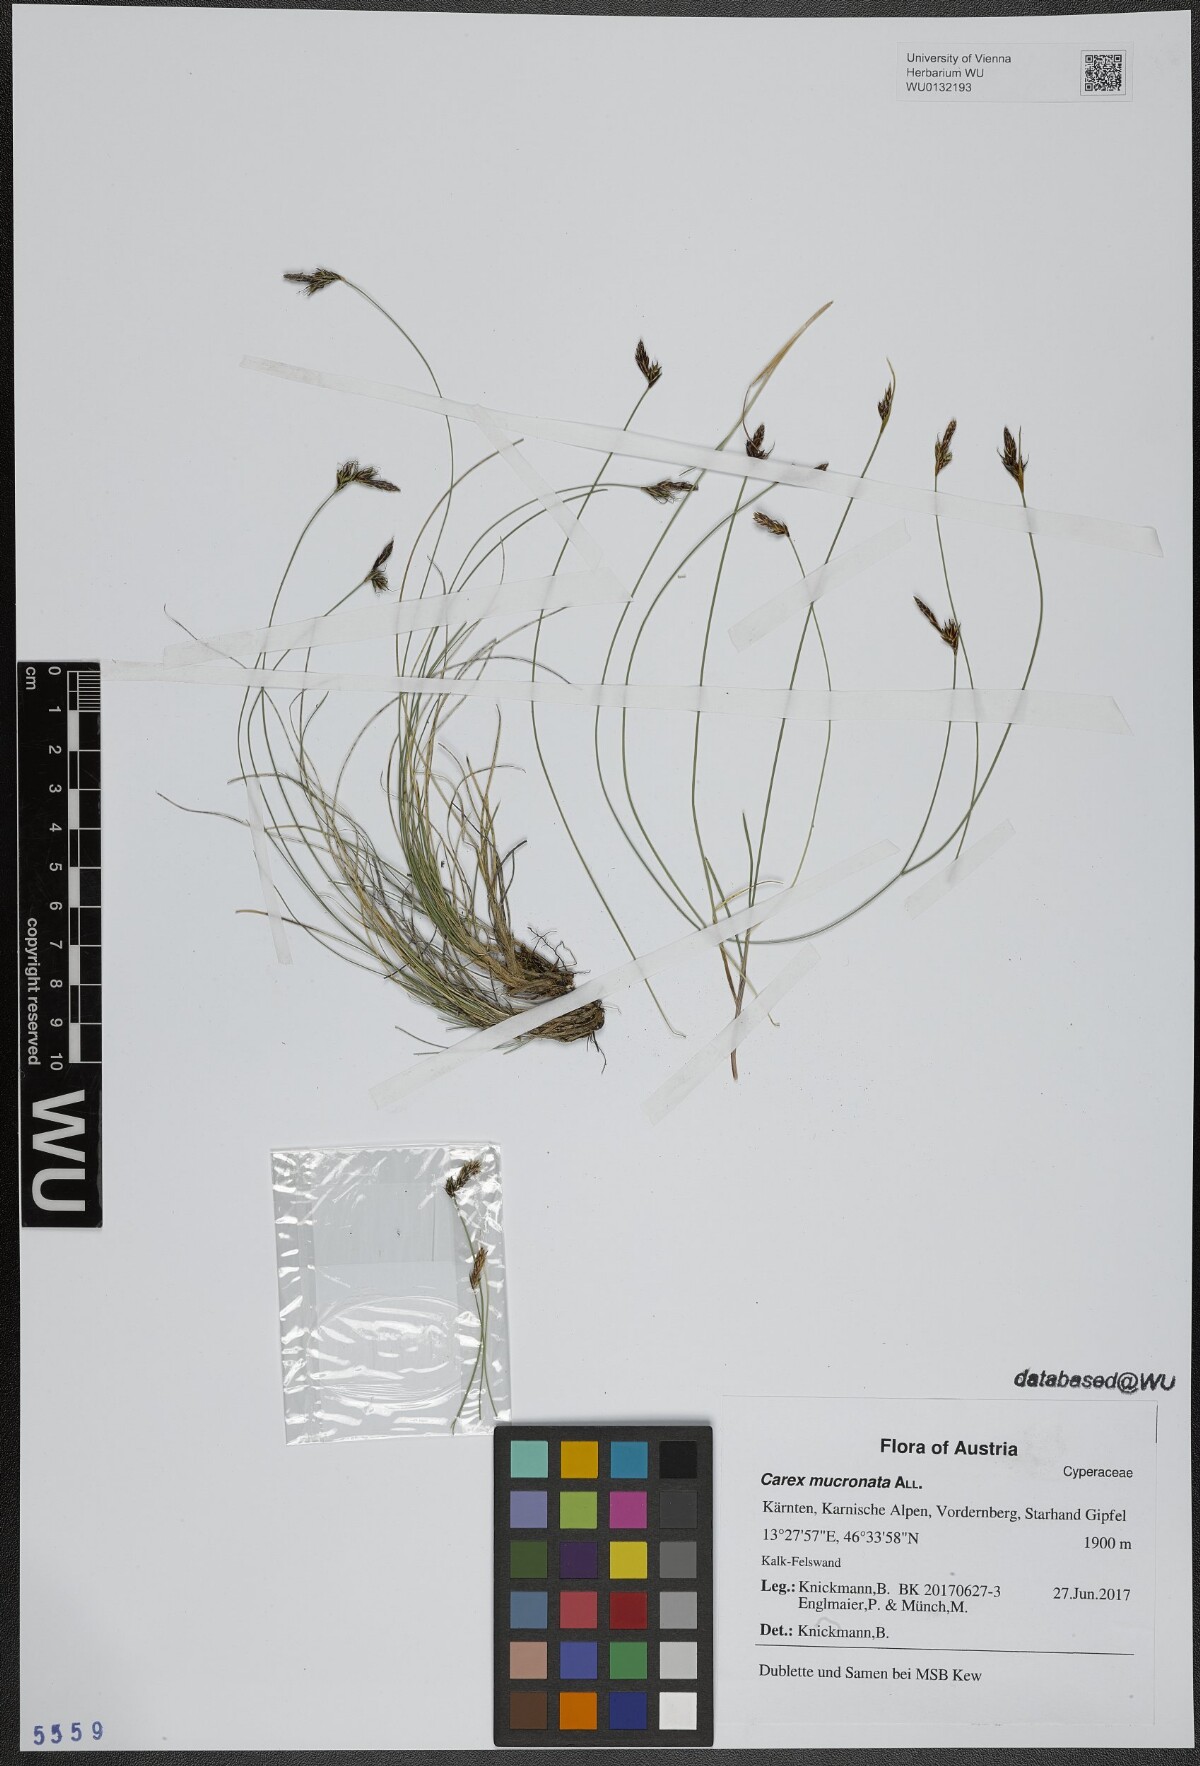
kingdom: Plantae
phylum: Tracheophyta
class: Liliopsida
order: Poales
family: Cyperaceae
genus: Carex
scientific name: Carex mucronata
